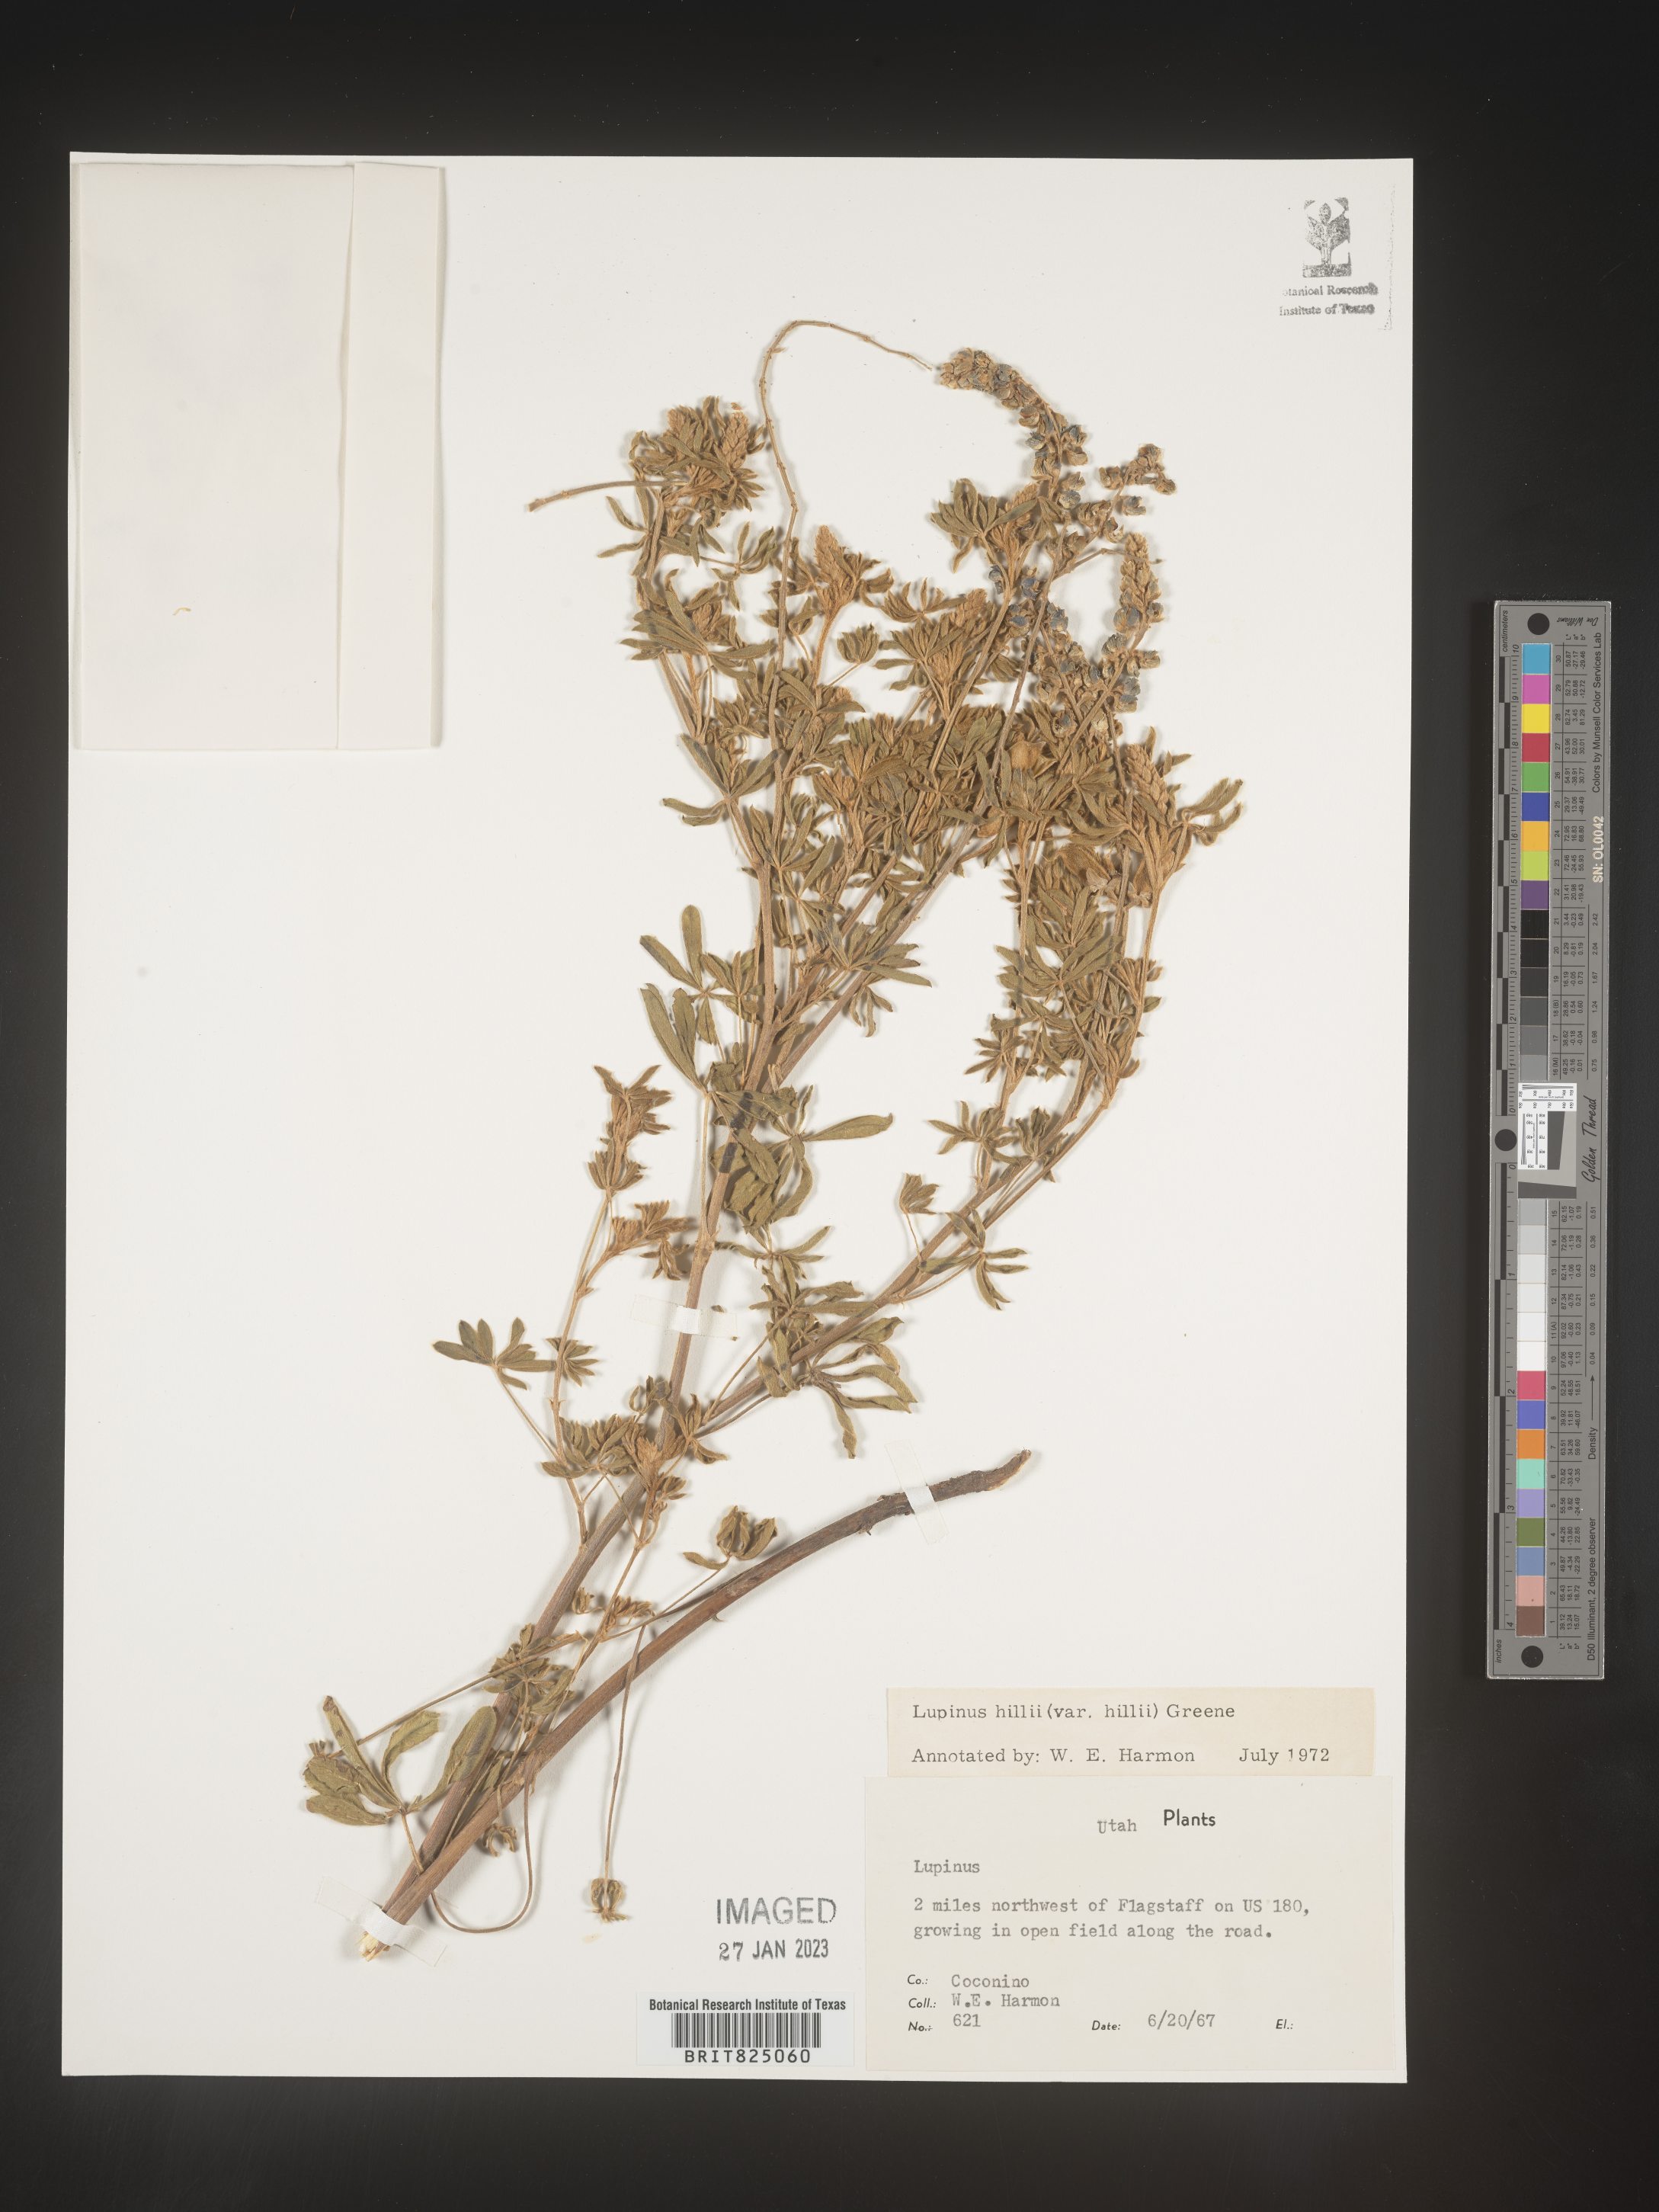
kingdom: Plantae
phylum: Tracheophyta
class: Magnoliopsida
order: Fabales
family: Fabaceae
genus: Lupinus
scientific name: Lupinus
